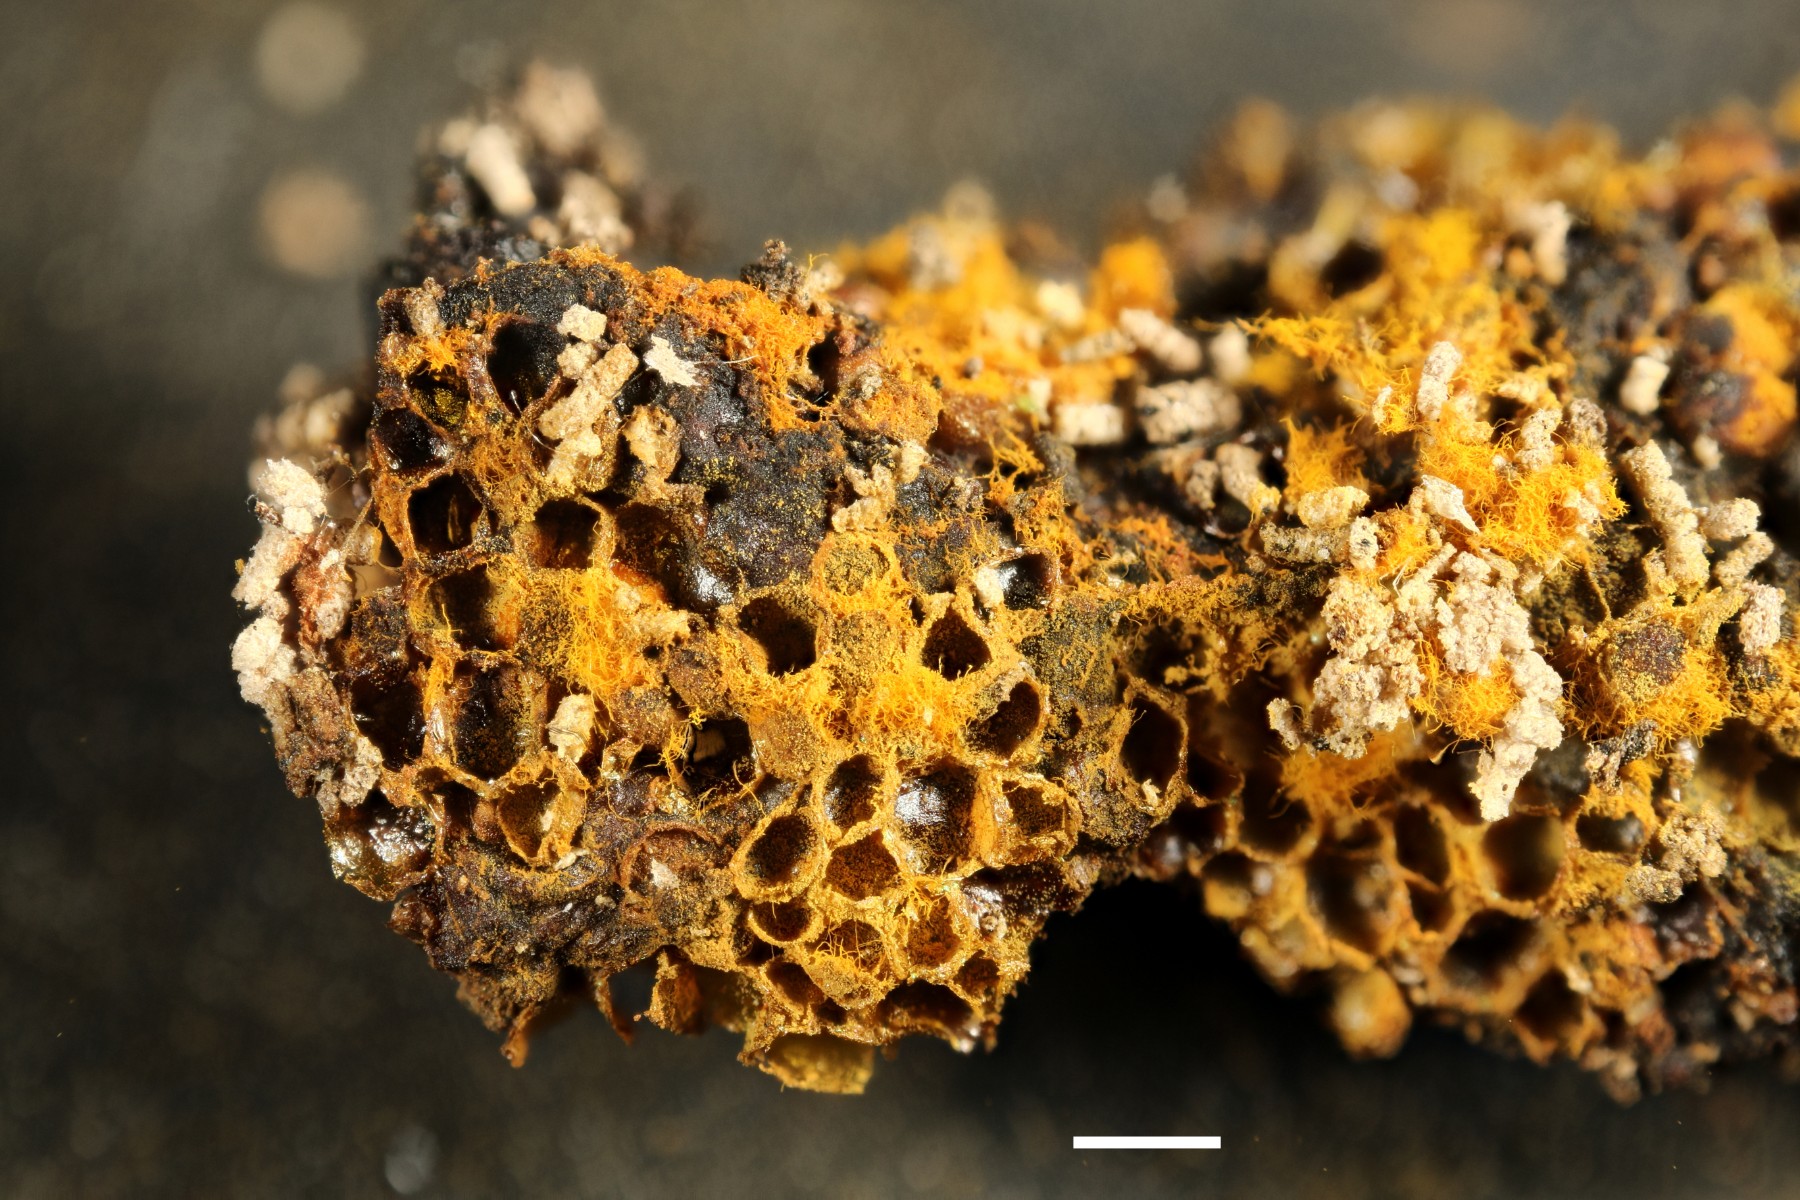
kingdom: Protozoa
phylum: Mycetozoa
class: Myxomycetes
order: Trichiales
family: Trichiaceae
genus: Trichia
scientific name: Trichia scabra
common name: tæppe-hårbold
